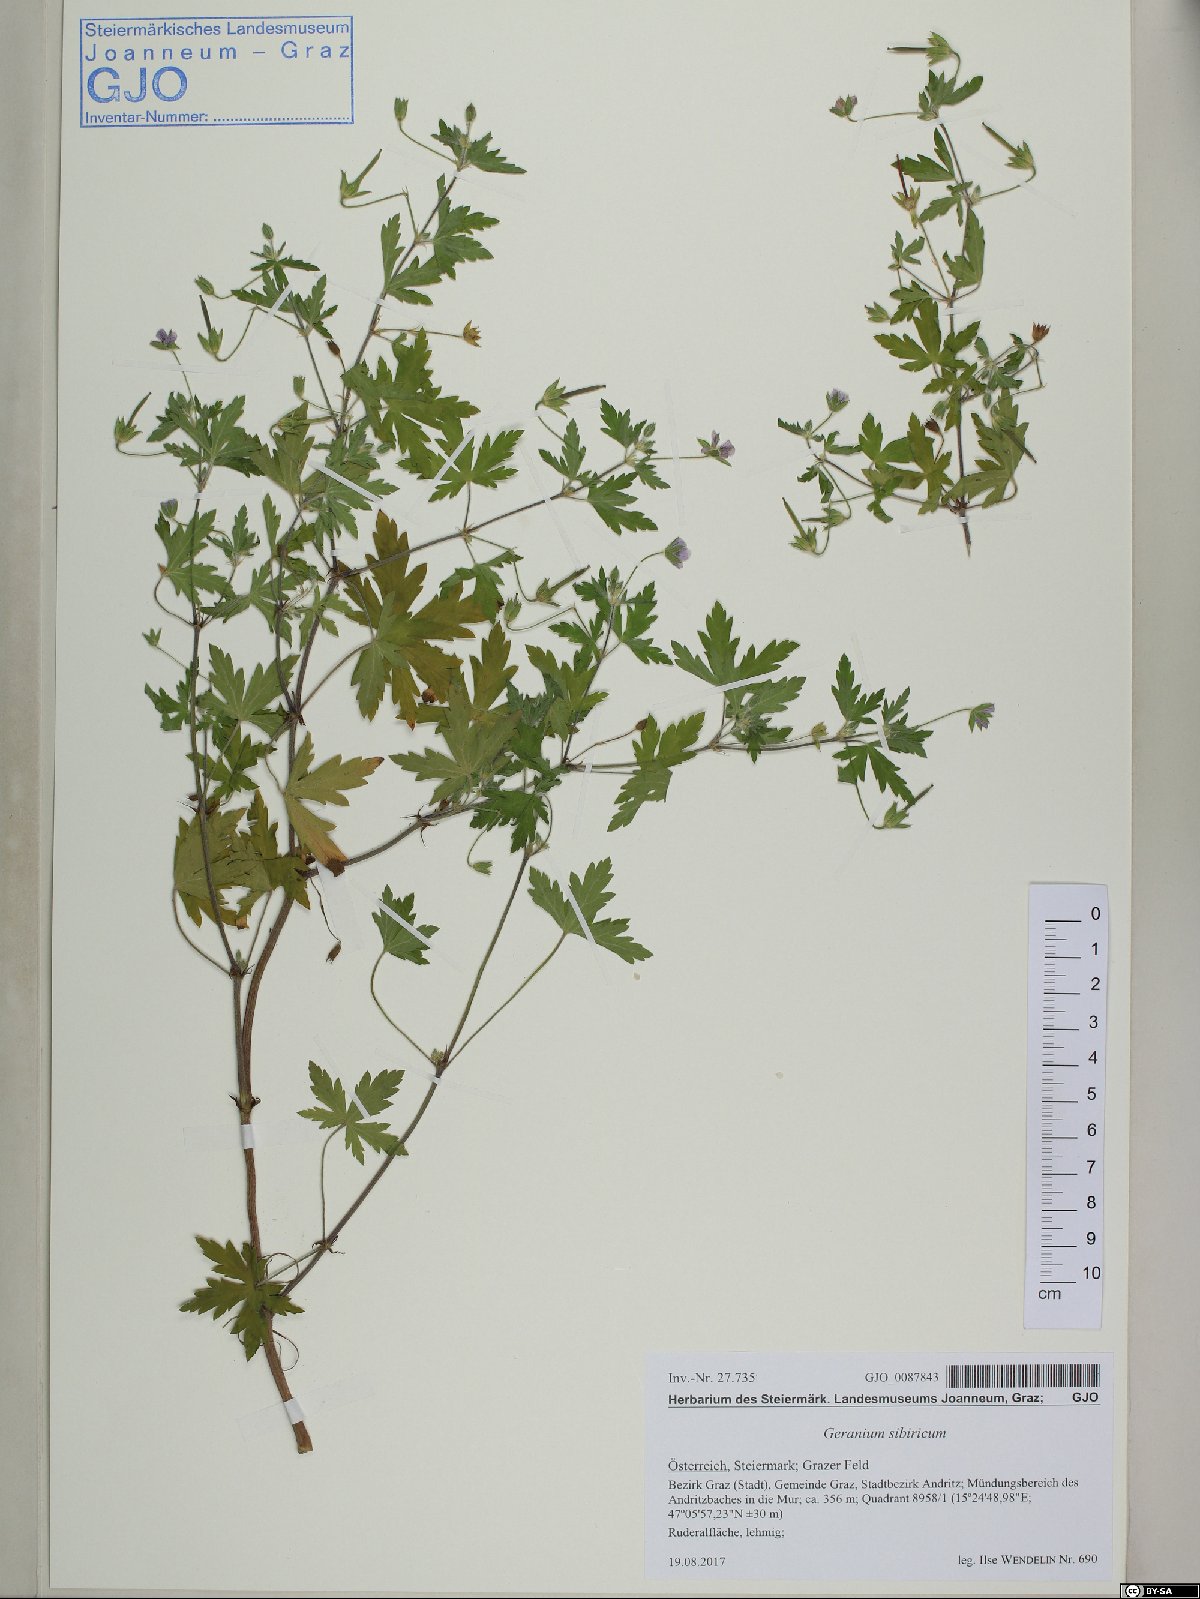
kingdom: Plantae
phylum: Tracheophyta
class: Magnoliopsida
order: Geraniales
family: Geraniaceae
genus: Geranium
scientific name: Geranium sibiricum
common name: Siberian crane's-bill
